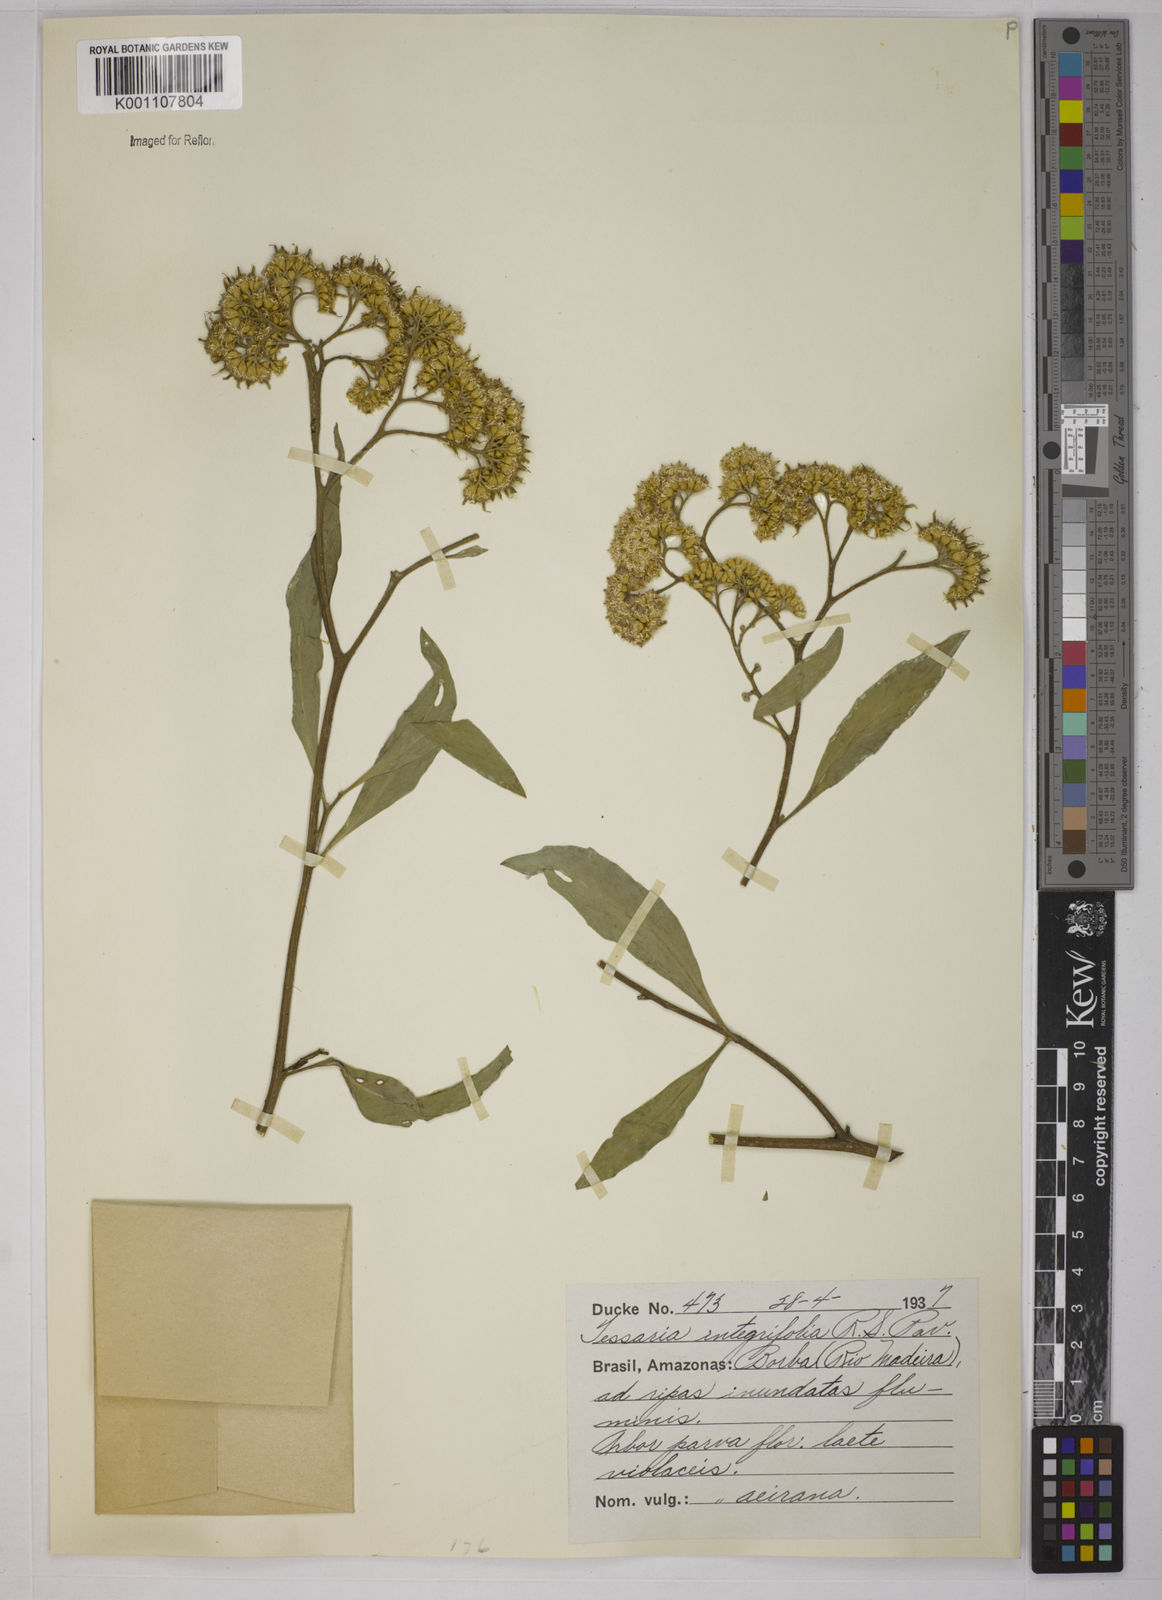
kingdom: Plantae
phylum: Tracheophyta
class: Magnoliopsida
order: Asterales
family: Asteraceae
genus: Tessaria
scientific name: Tessaria integrifolia
